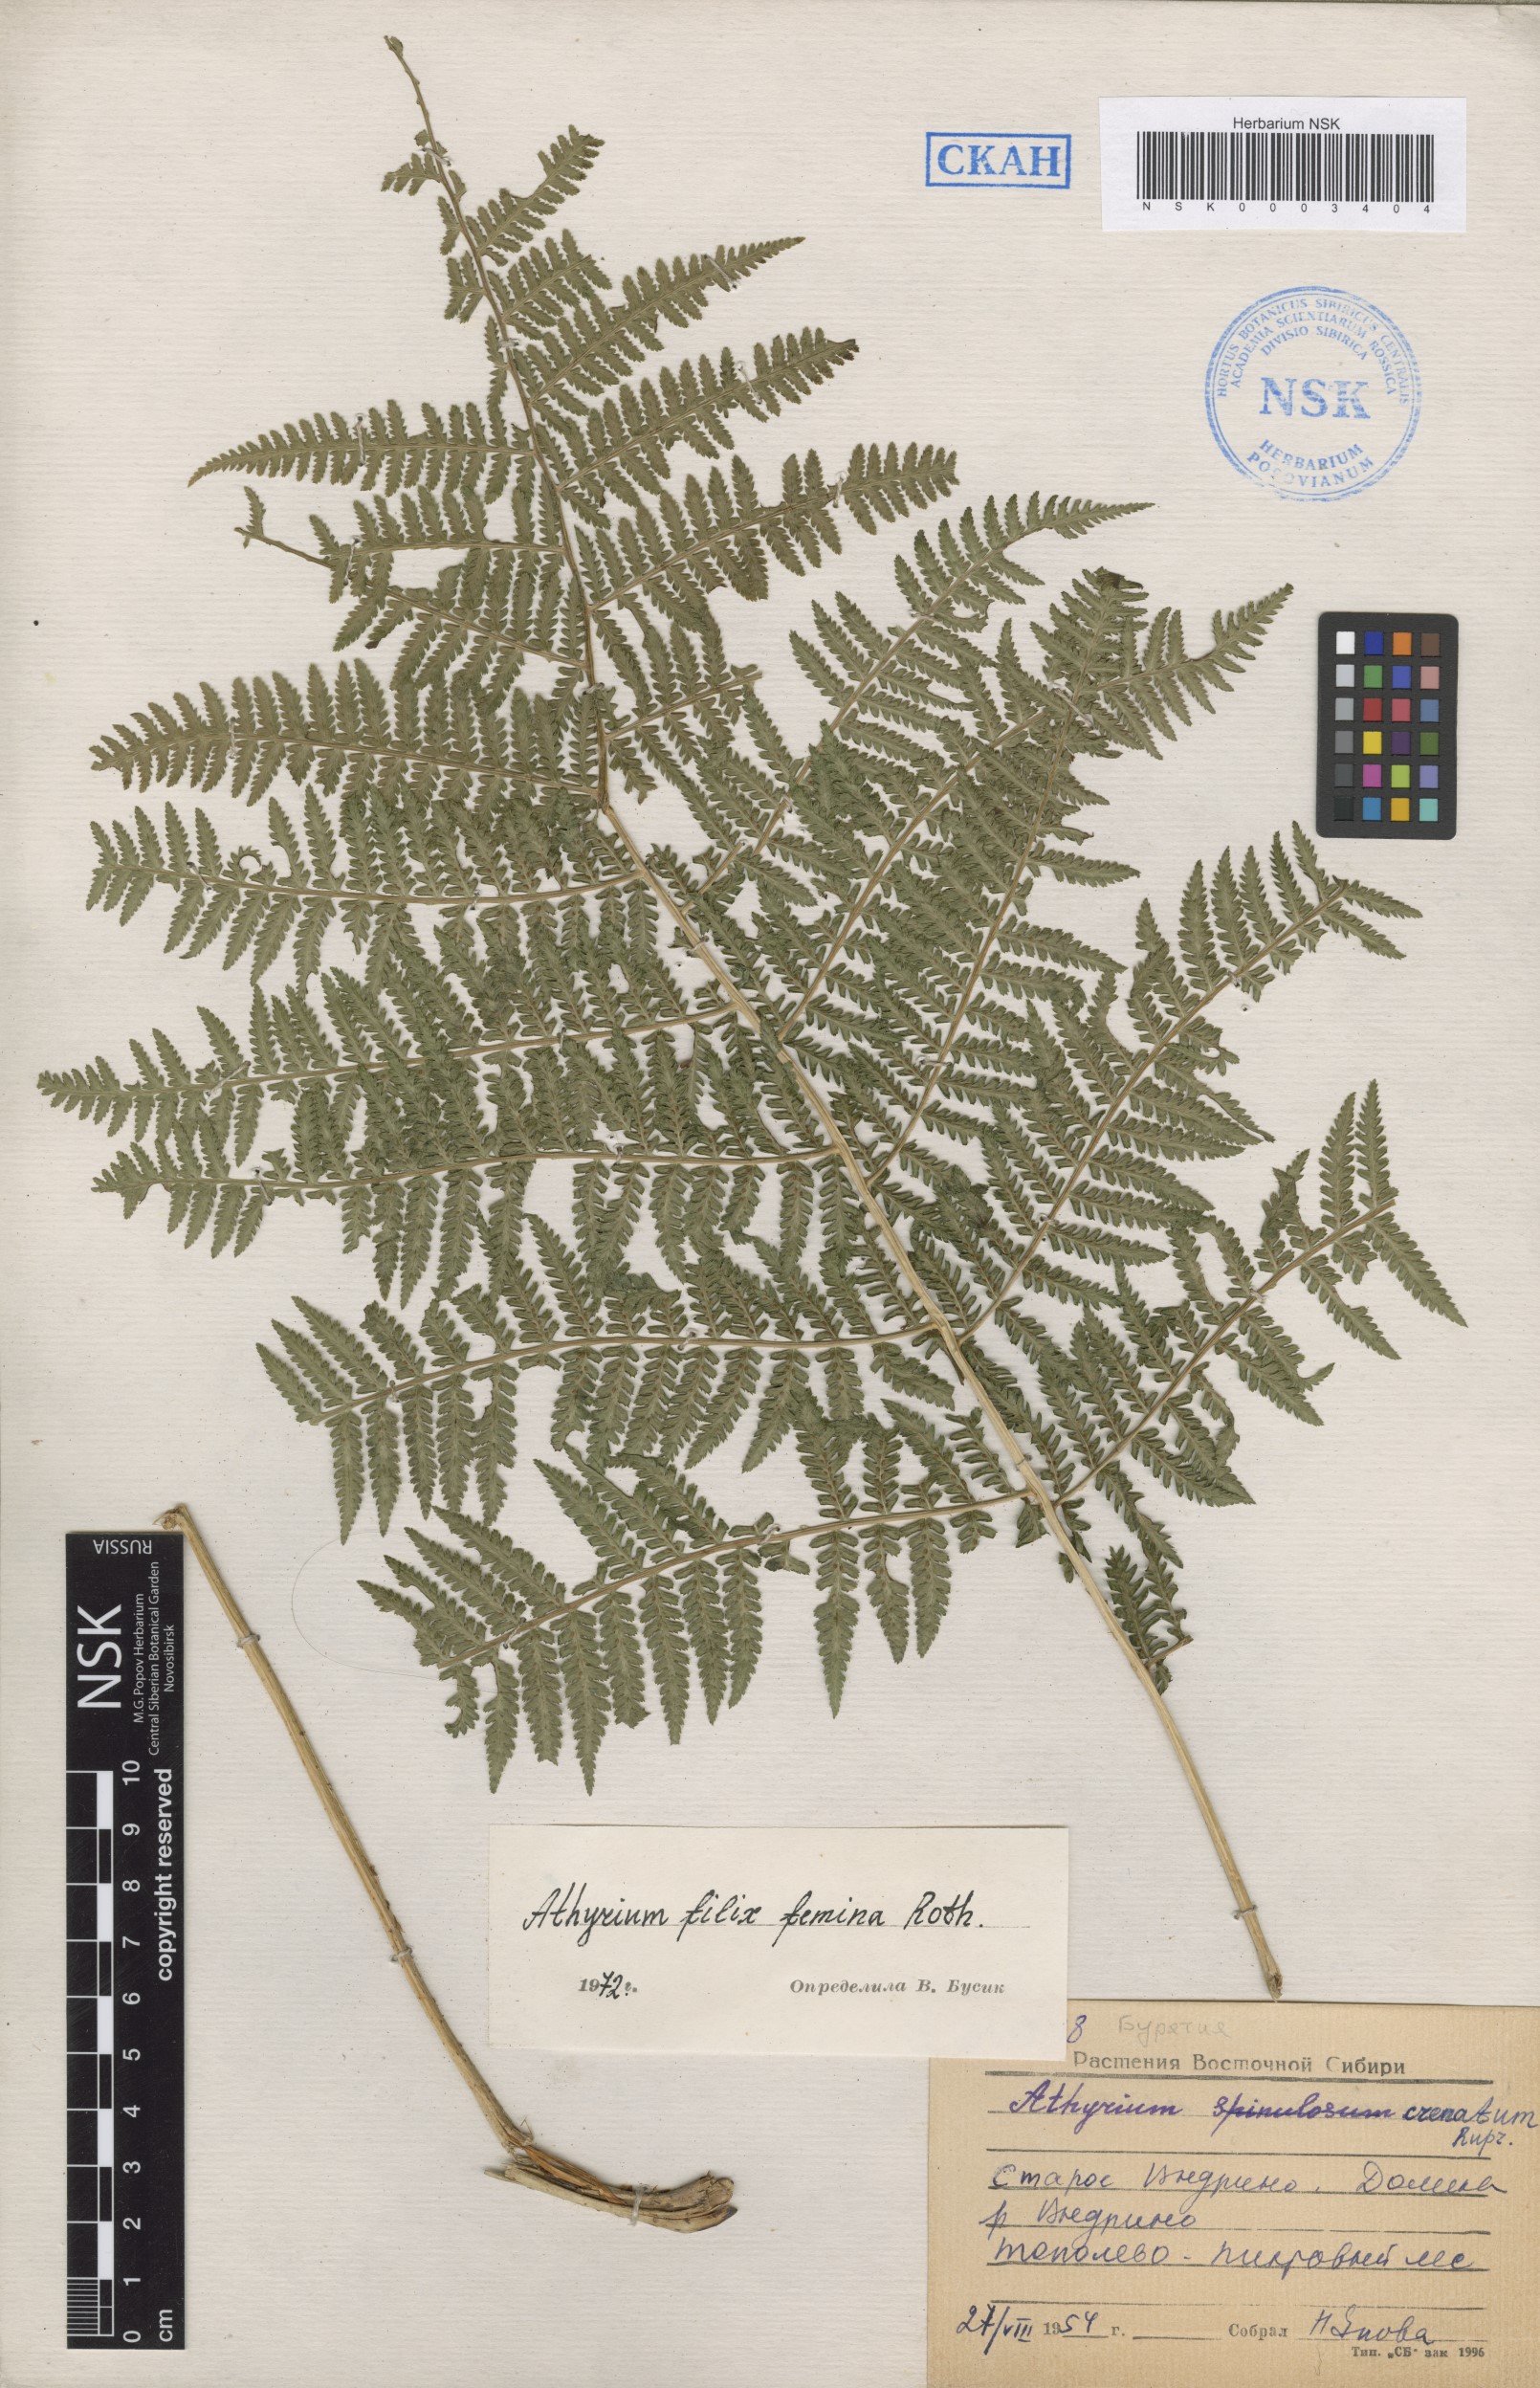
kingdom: Plantae
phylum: Tracheophyta
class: Polypodiopsida
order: Polypodiales
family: Athyriaceae
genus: Athyrium
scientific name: Athyrium filix-femina
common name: Lady fern
